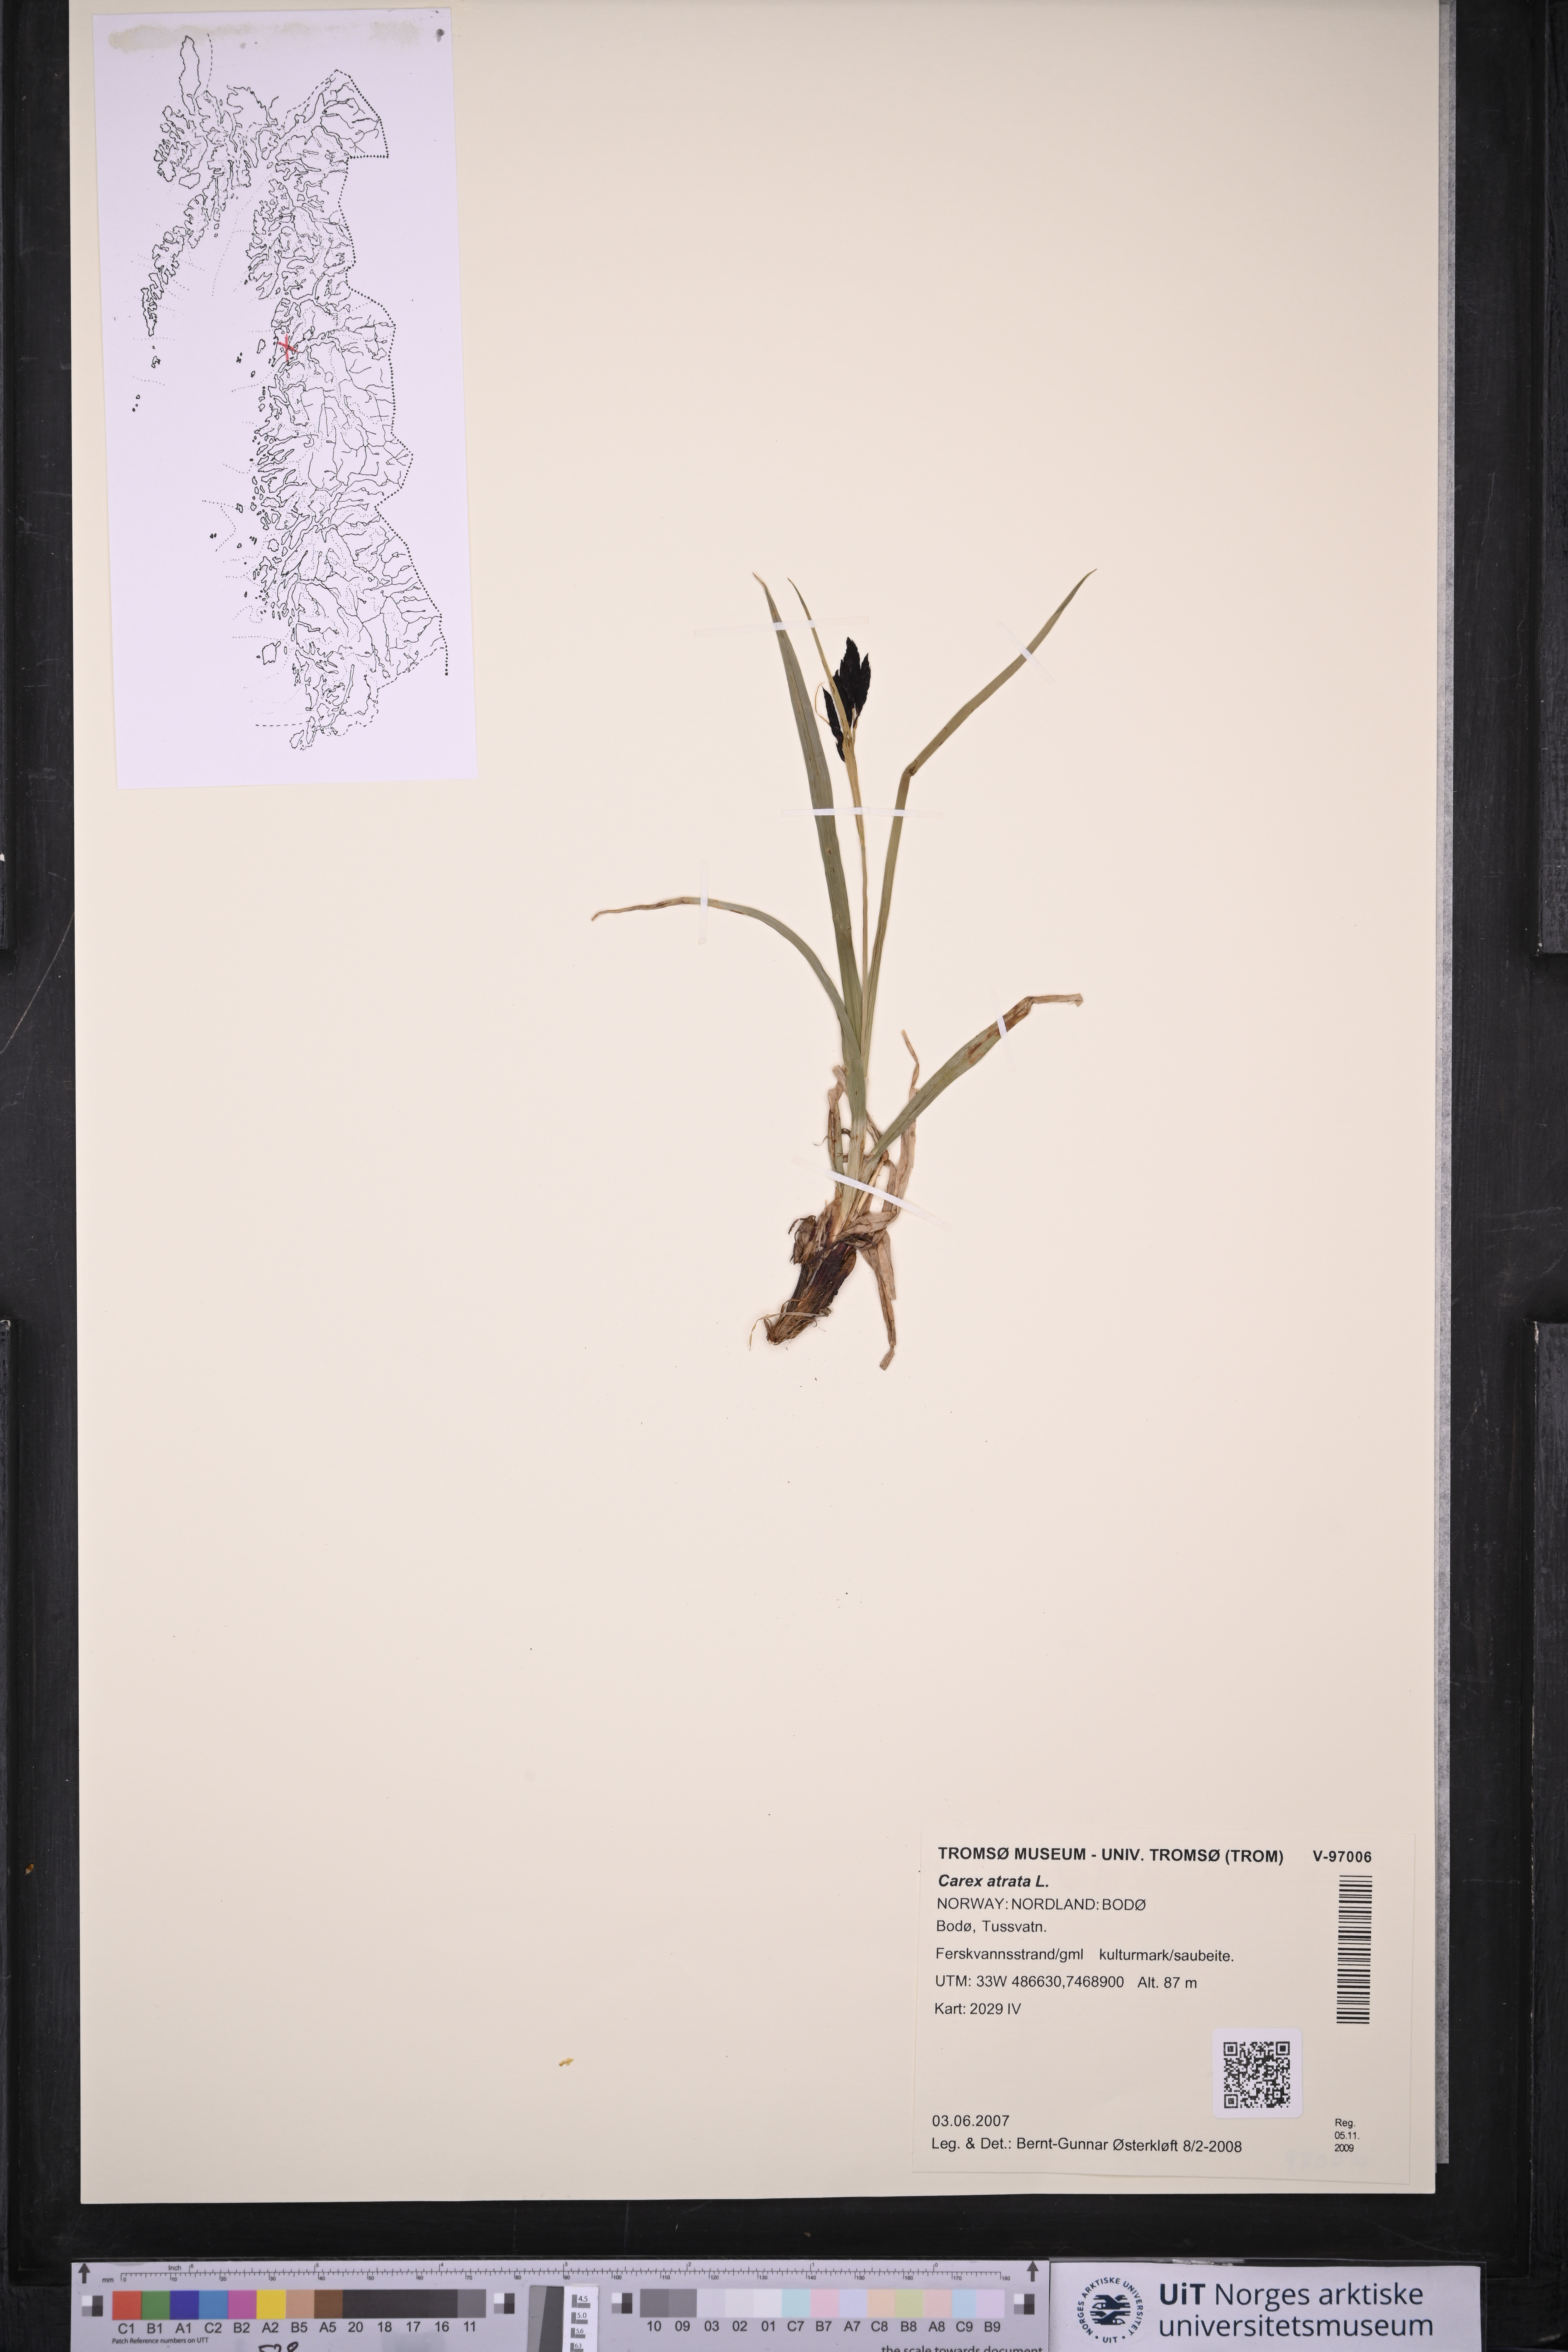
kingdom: Plantae
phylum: Tracheophyta
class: Magnoliopsida
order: Caryophyllales
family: Polygonaceae
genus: Polygonum
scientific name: Polygonum oxyspermum
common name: Ray's knotgrass
